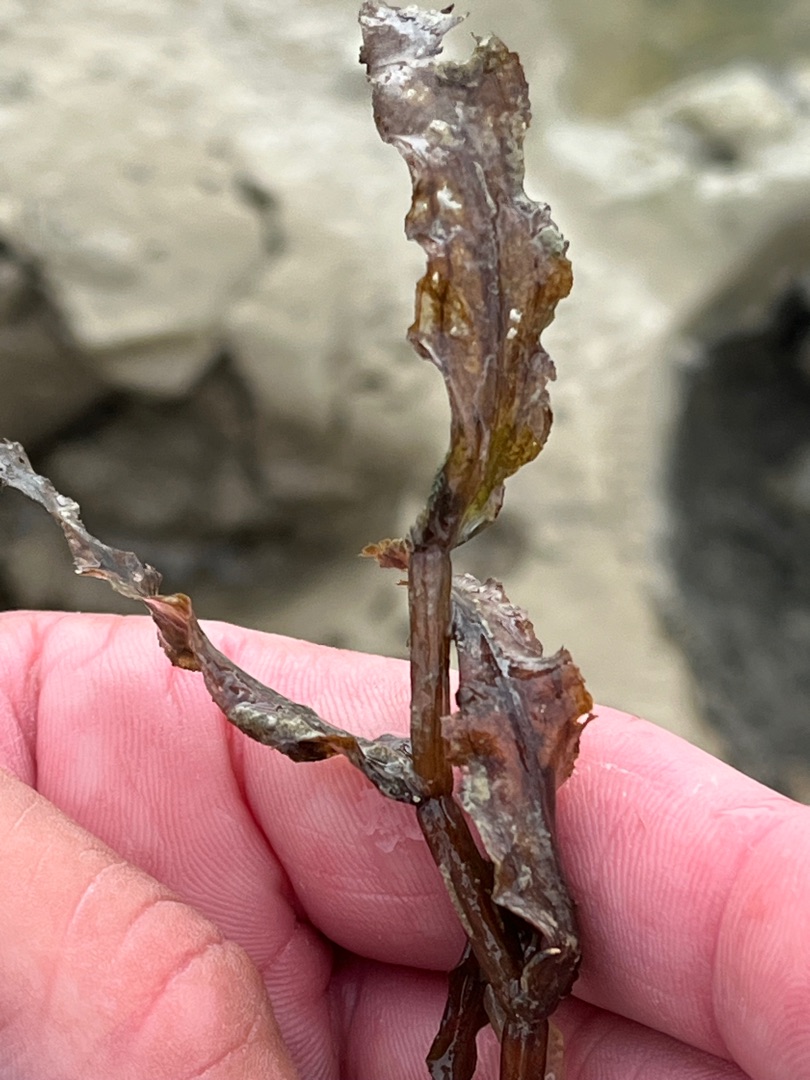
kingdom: Plantae
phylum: Tracheophyta
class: Liliopsida
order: Alismatales
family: Potamogetonaceae
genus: Potamogeton
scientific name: Potamogeton crispus
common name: Kruset vandaks
